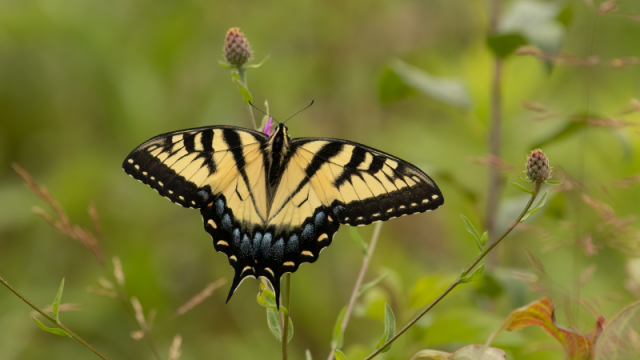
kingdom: Animalia
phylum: Arthropoda
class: Insecta
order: Lepidoptera
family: Papilionidae
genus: Pterourus
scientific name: Pterourus glaucus
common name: Eastern Tiger Swallowtail
